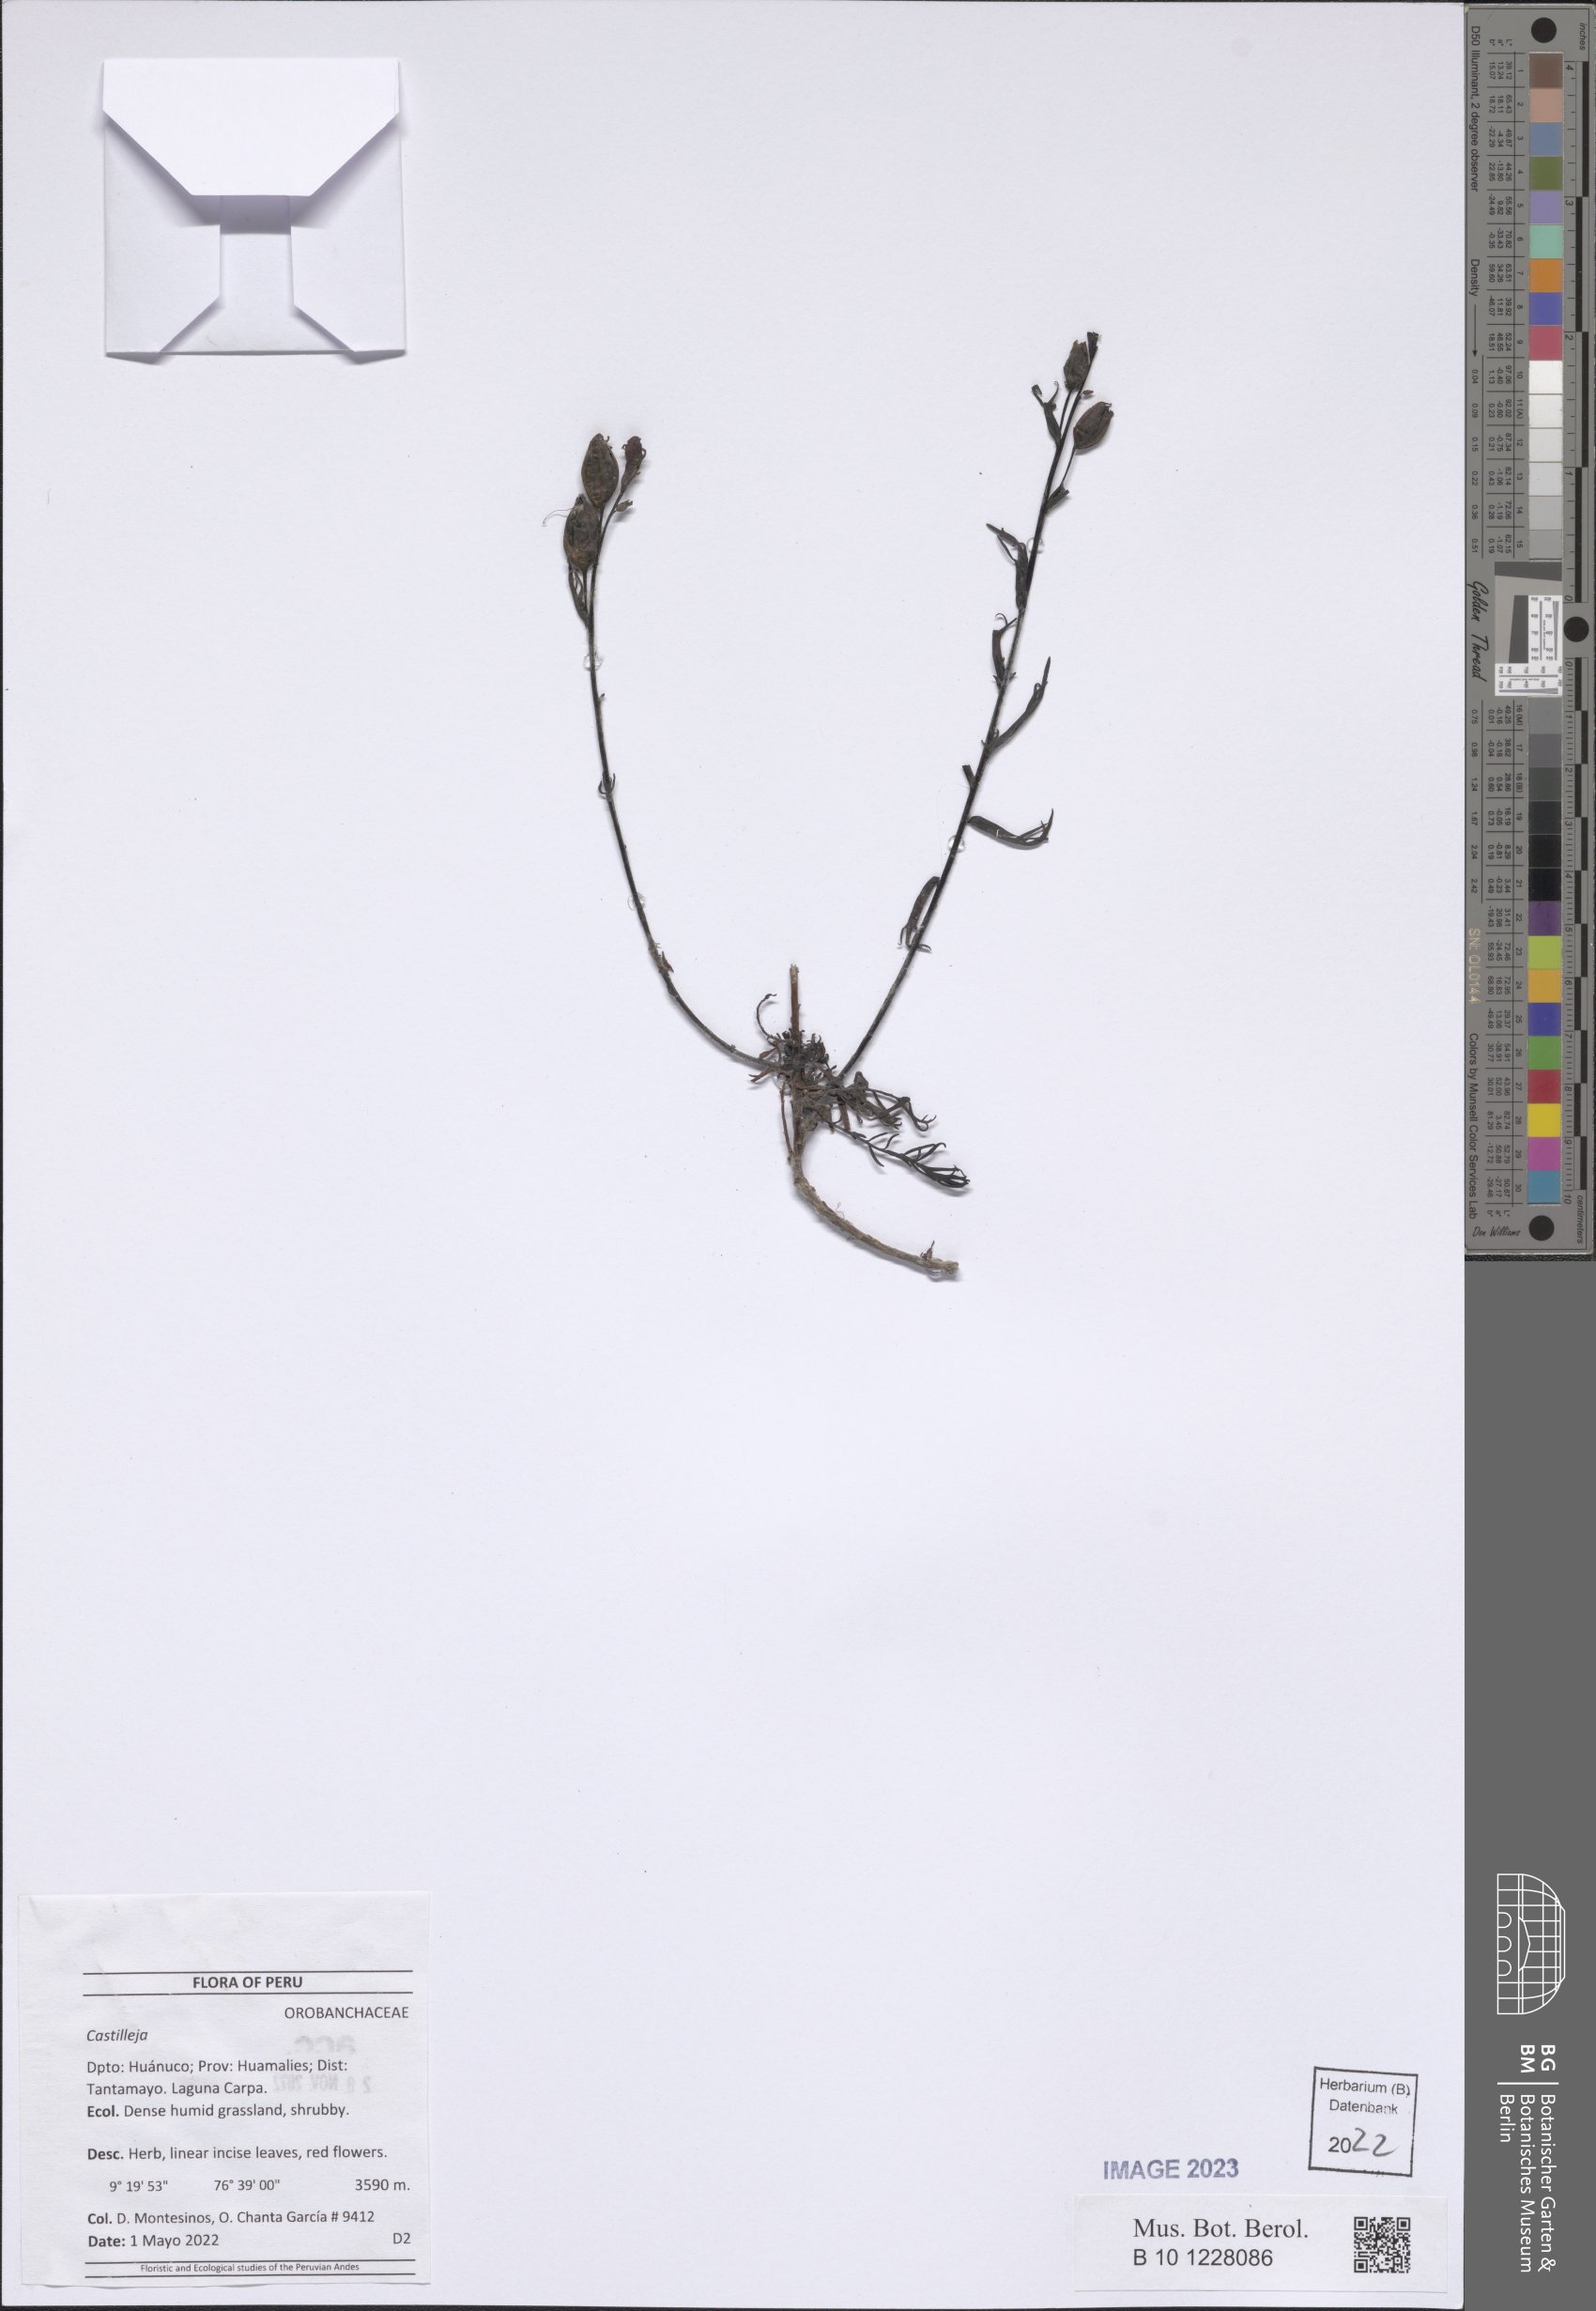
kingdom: Plantae
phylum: Tracheophyta
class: Magnoliopsida
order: Lamiales
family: Orobanchaceae
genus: Castilleja
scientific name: Castilleja
